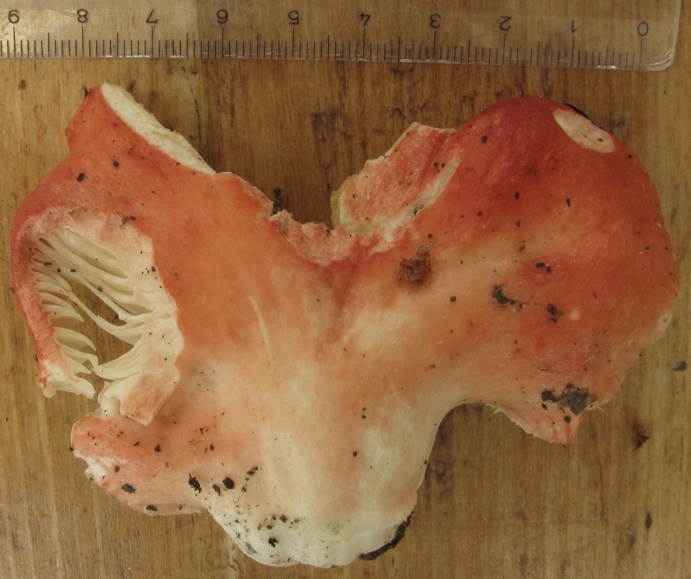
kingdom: Fungi
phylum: Basidiomycota
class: Agaricomycetes
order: Russulales
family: Russulaceae
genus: Russula
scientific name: Russula luteotacta
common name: gulplettet gift-skørhat
